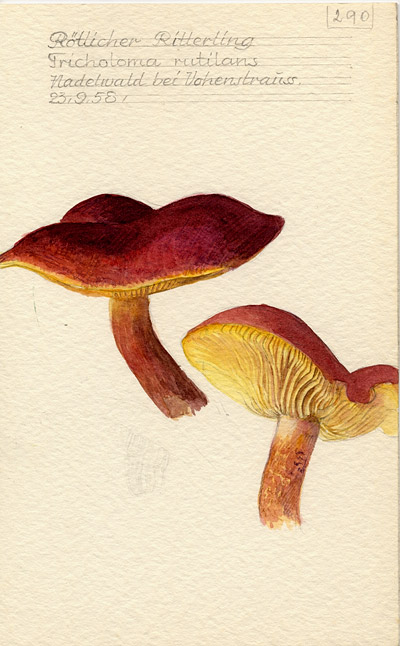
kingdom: Fungi
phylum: Basidiomycota
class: Agaricomycetes
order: Agaricales
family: Tricholomataceae
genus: Tricholomopsis
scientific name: Tricholomopsis rutilans
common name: Plums and custard
